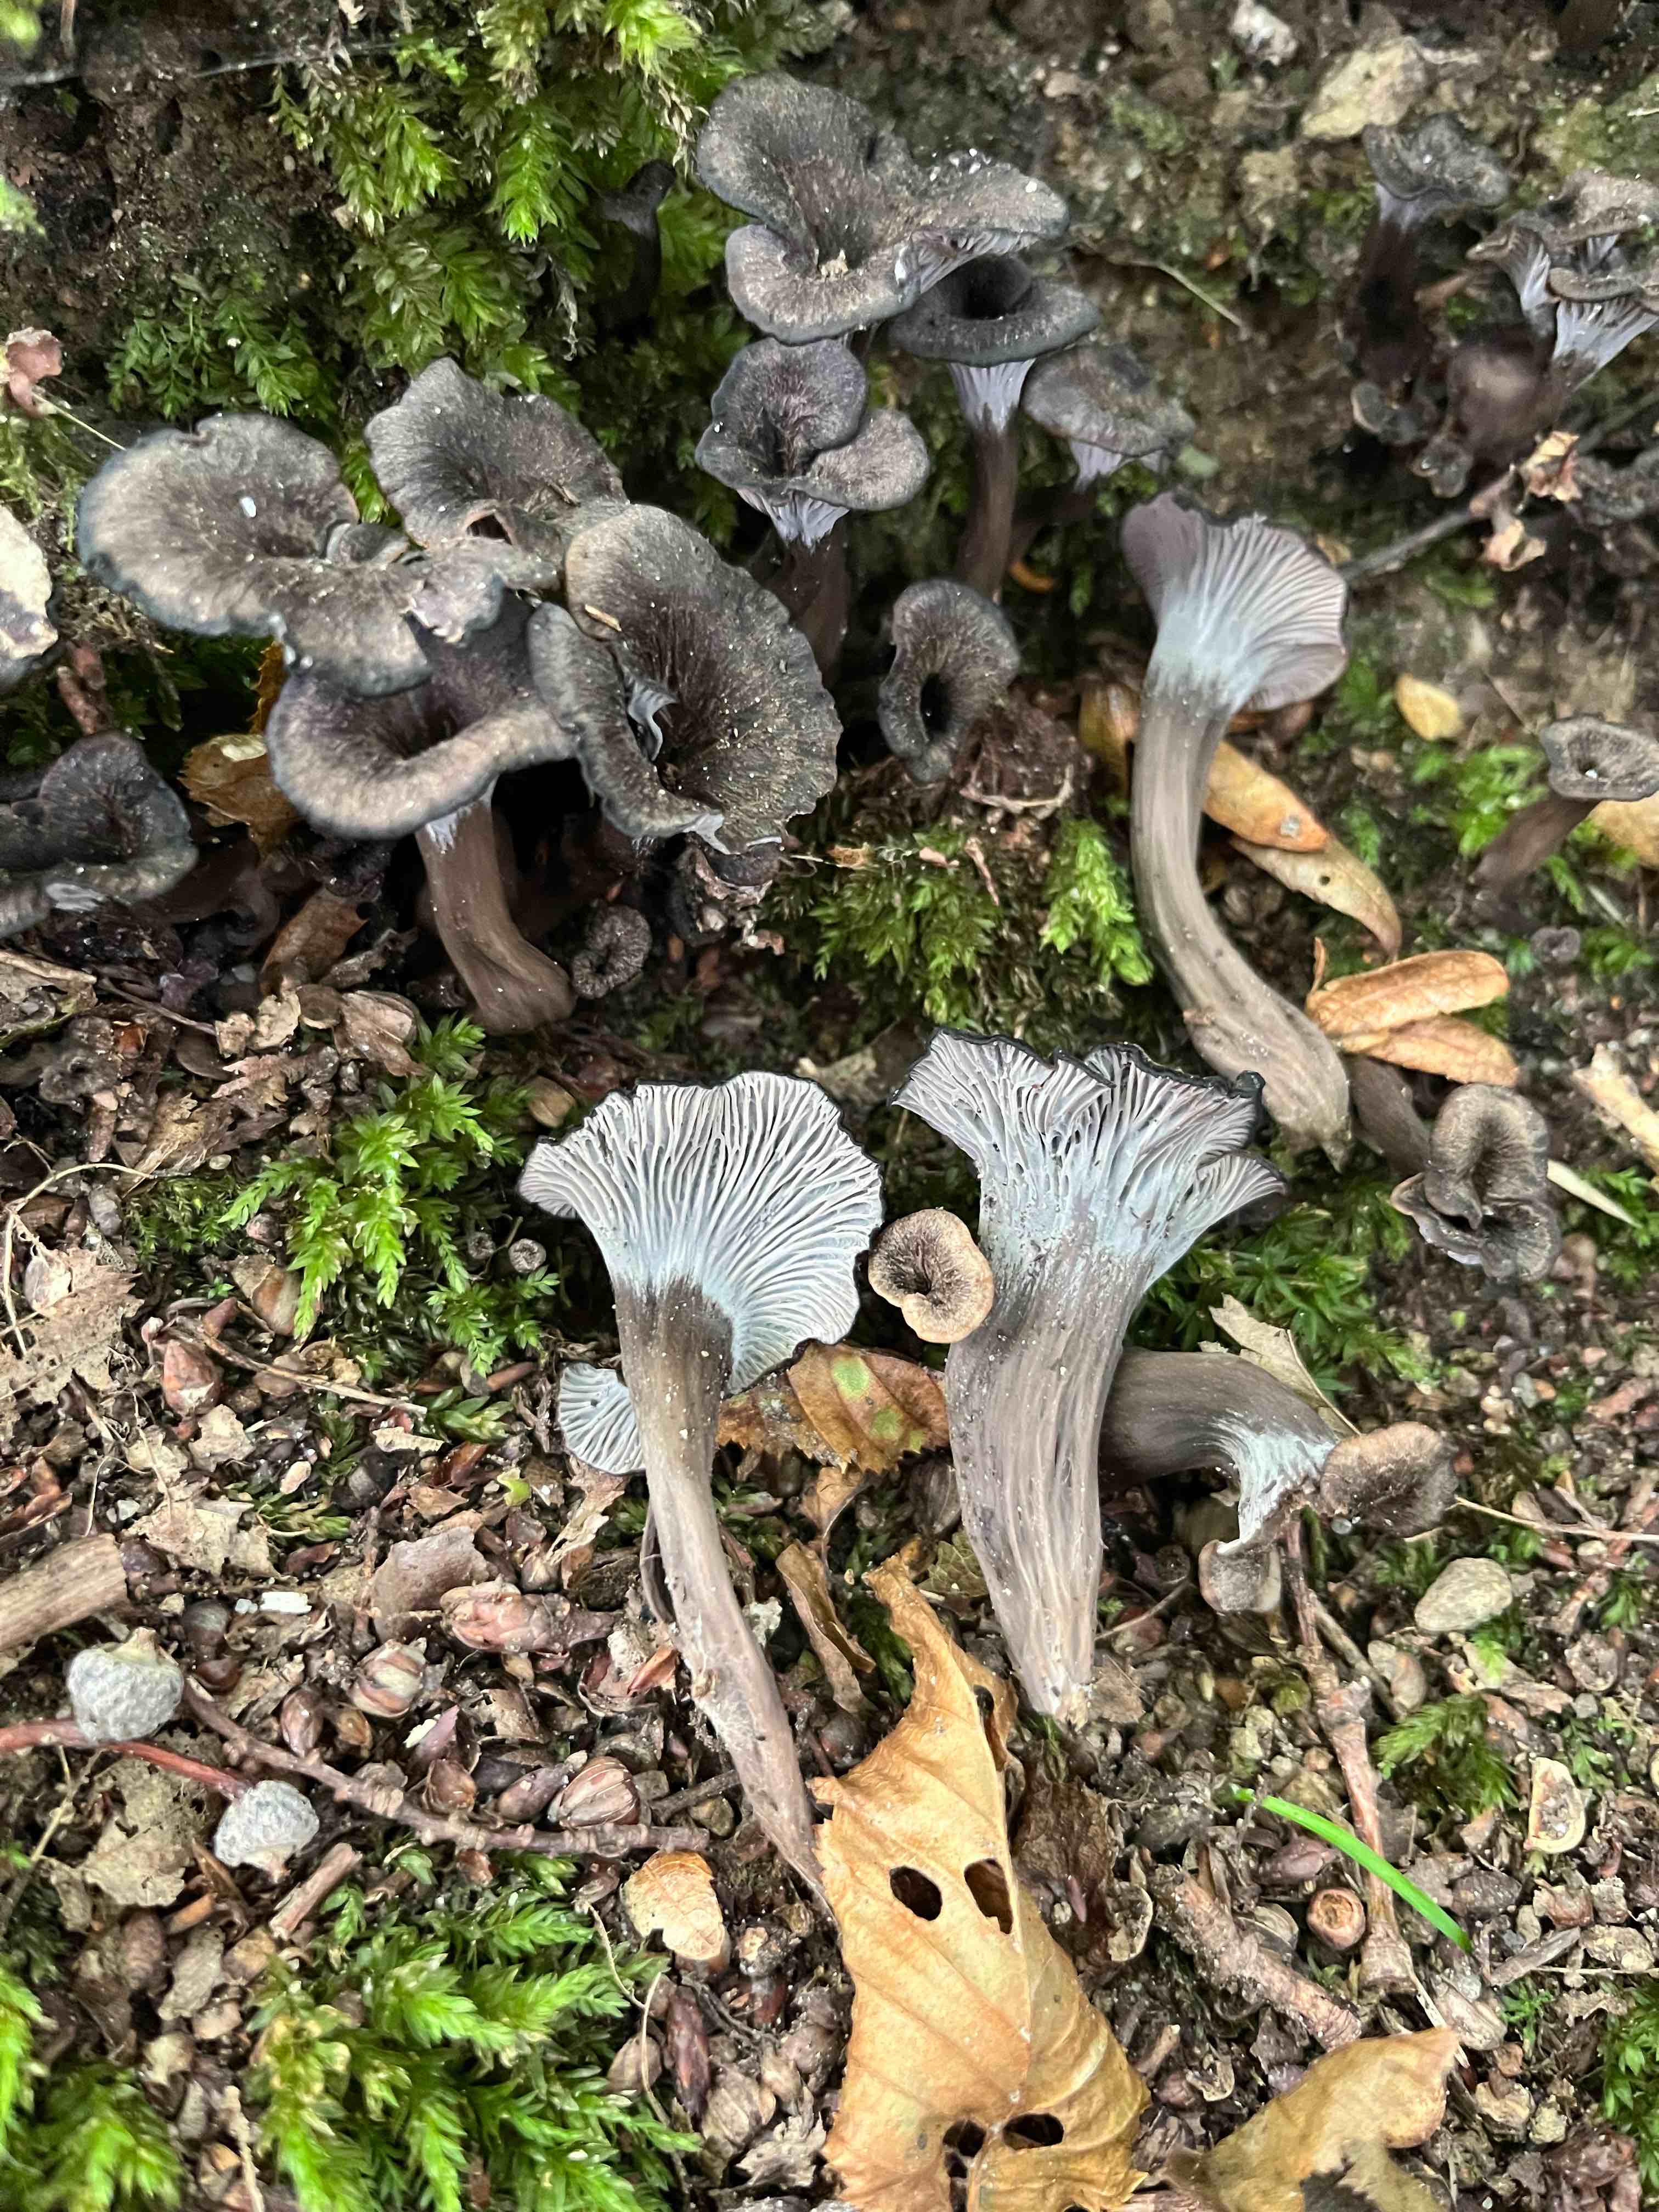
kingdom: Fungi
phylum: Basidiomycota
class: Agaricomycetes
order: Cantharellales
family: Hydnaceae
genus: Cantharellus
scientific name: Cantharellus cinereus
